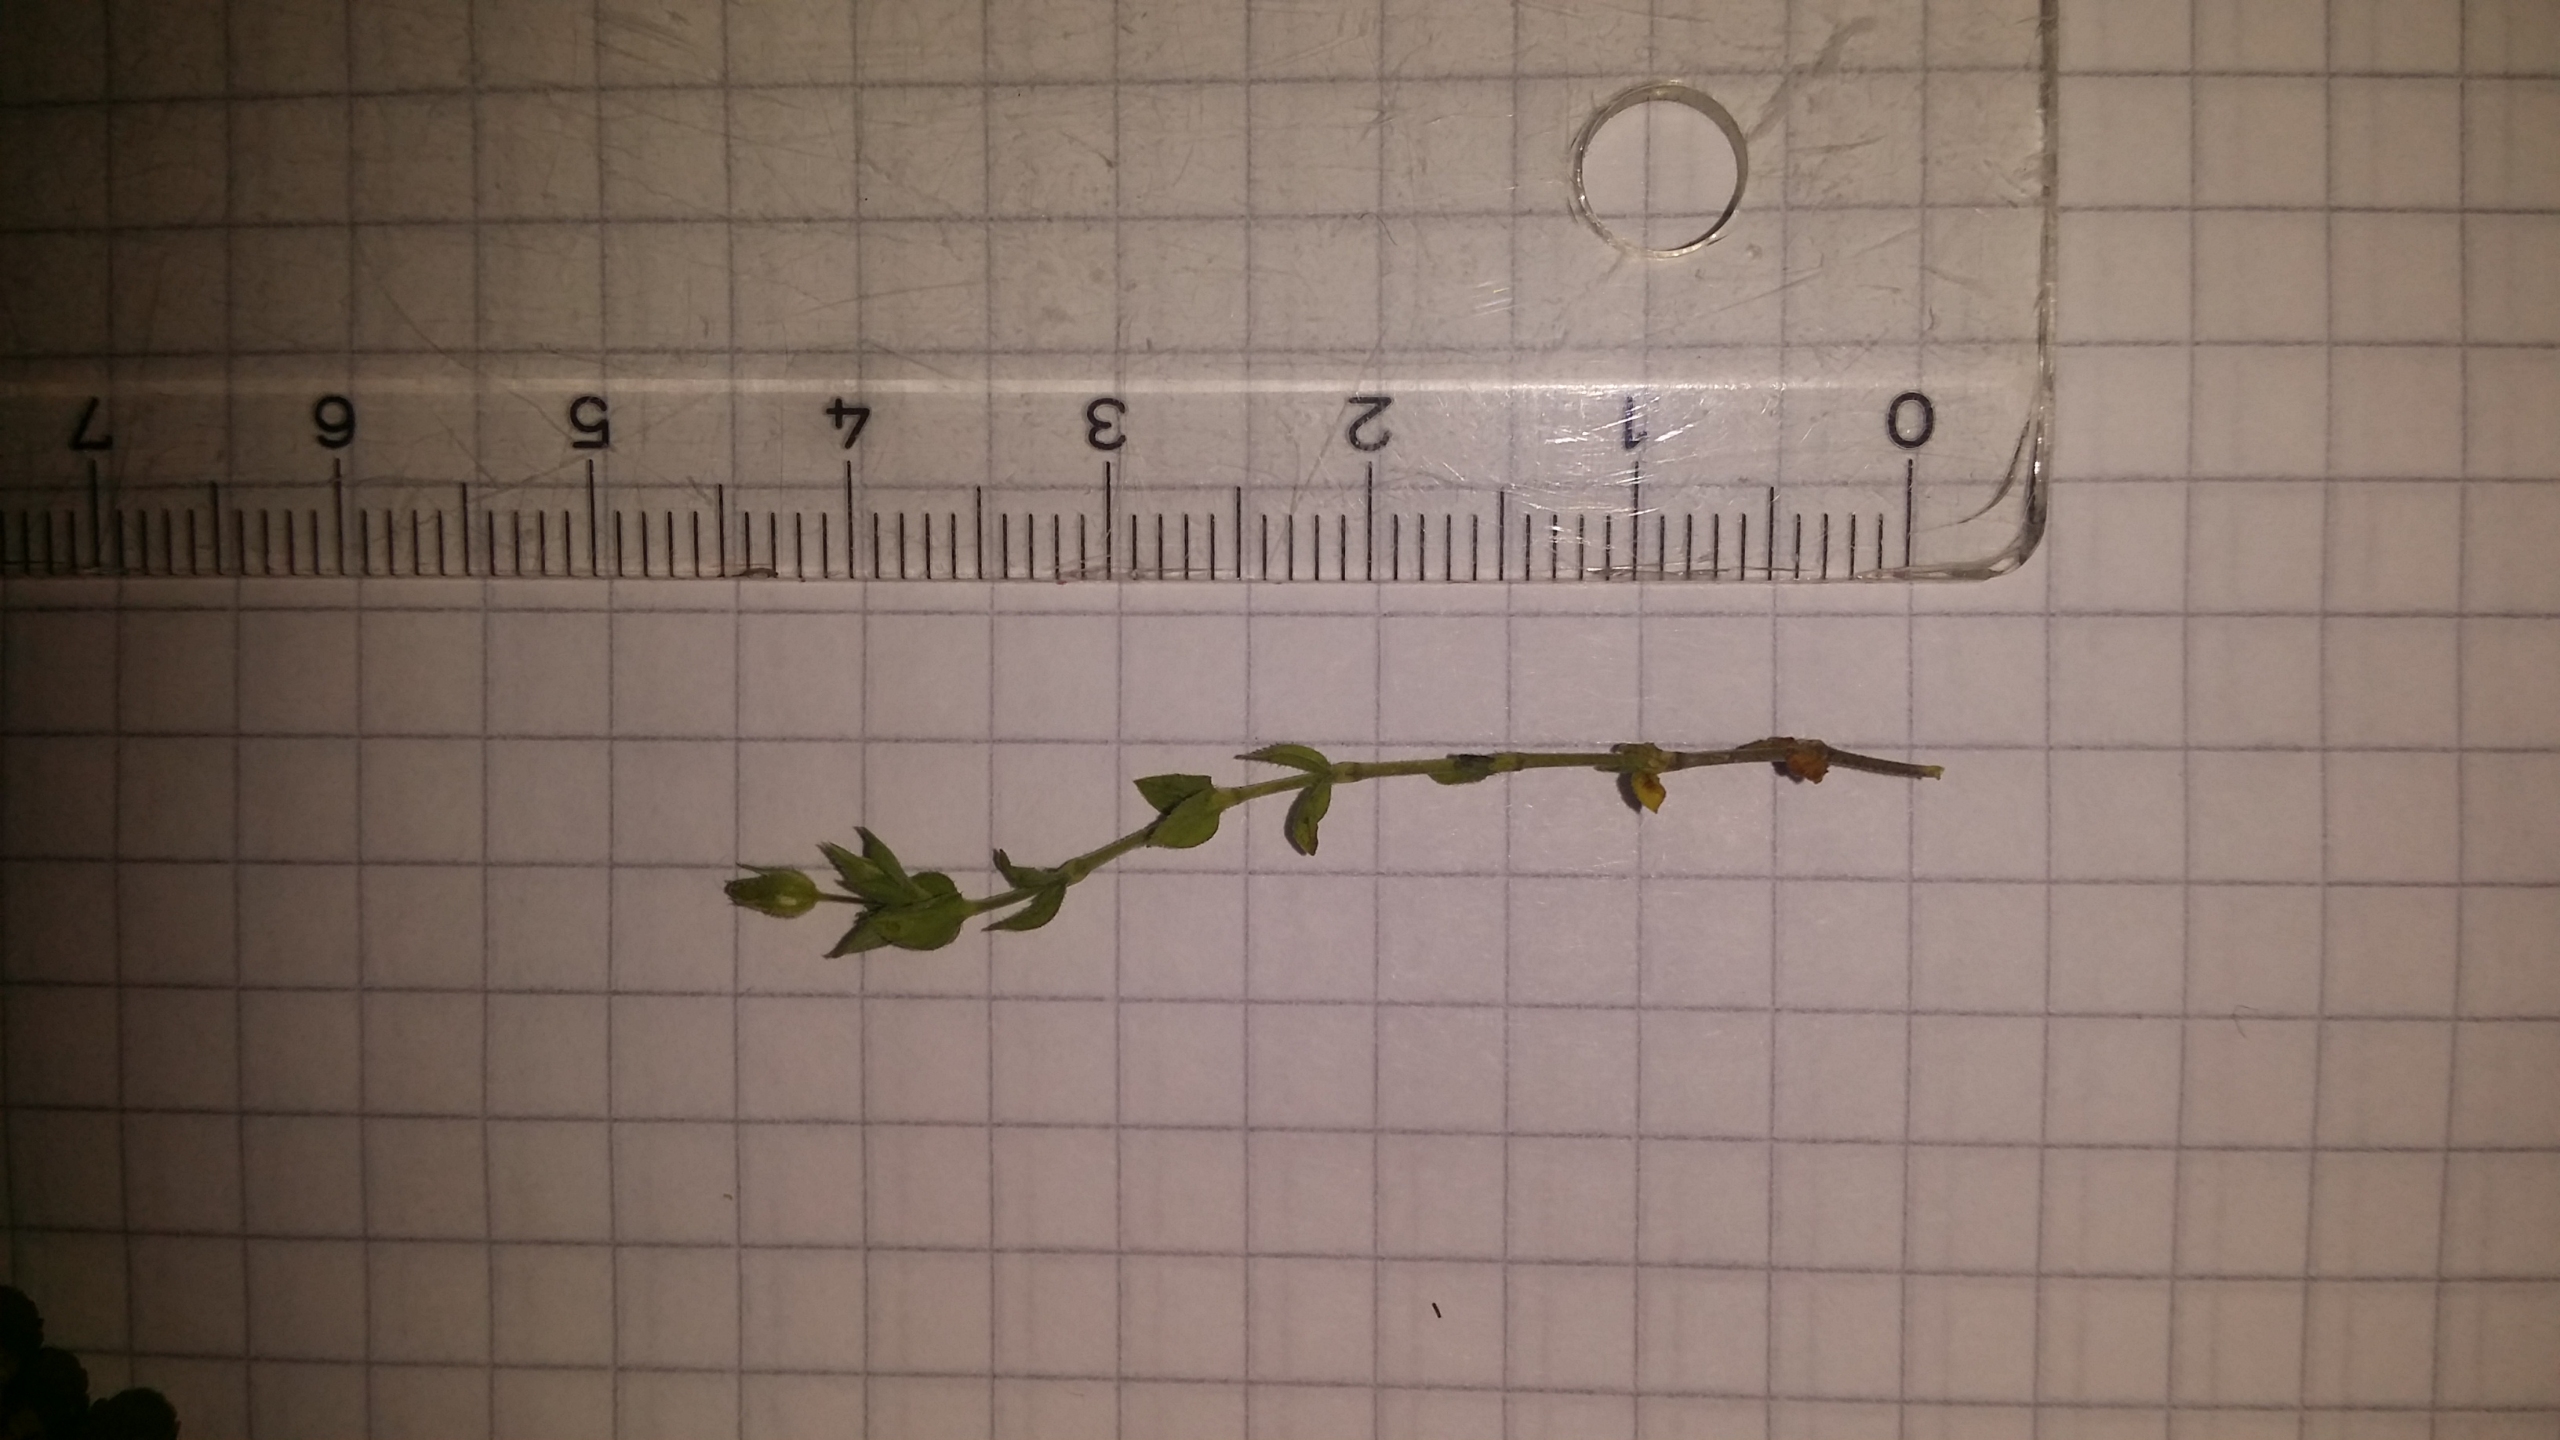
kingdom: Plantae
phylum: Tracheophyta
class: Magnoliopsida
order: Caryophyllales
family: Caryophyllaceae
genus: Arenaria
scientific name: Arenaria serpyllifolia
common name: Almindelig markarve
